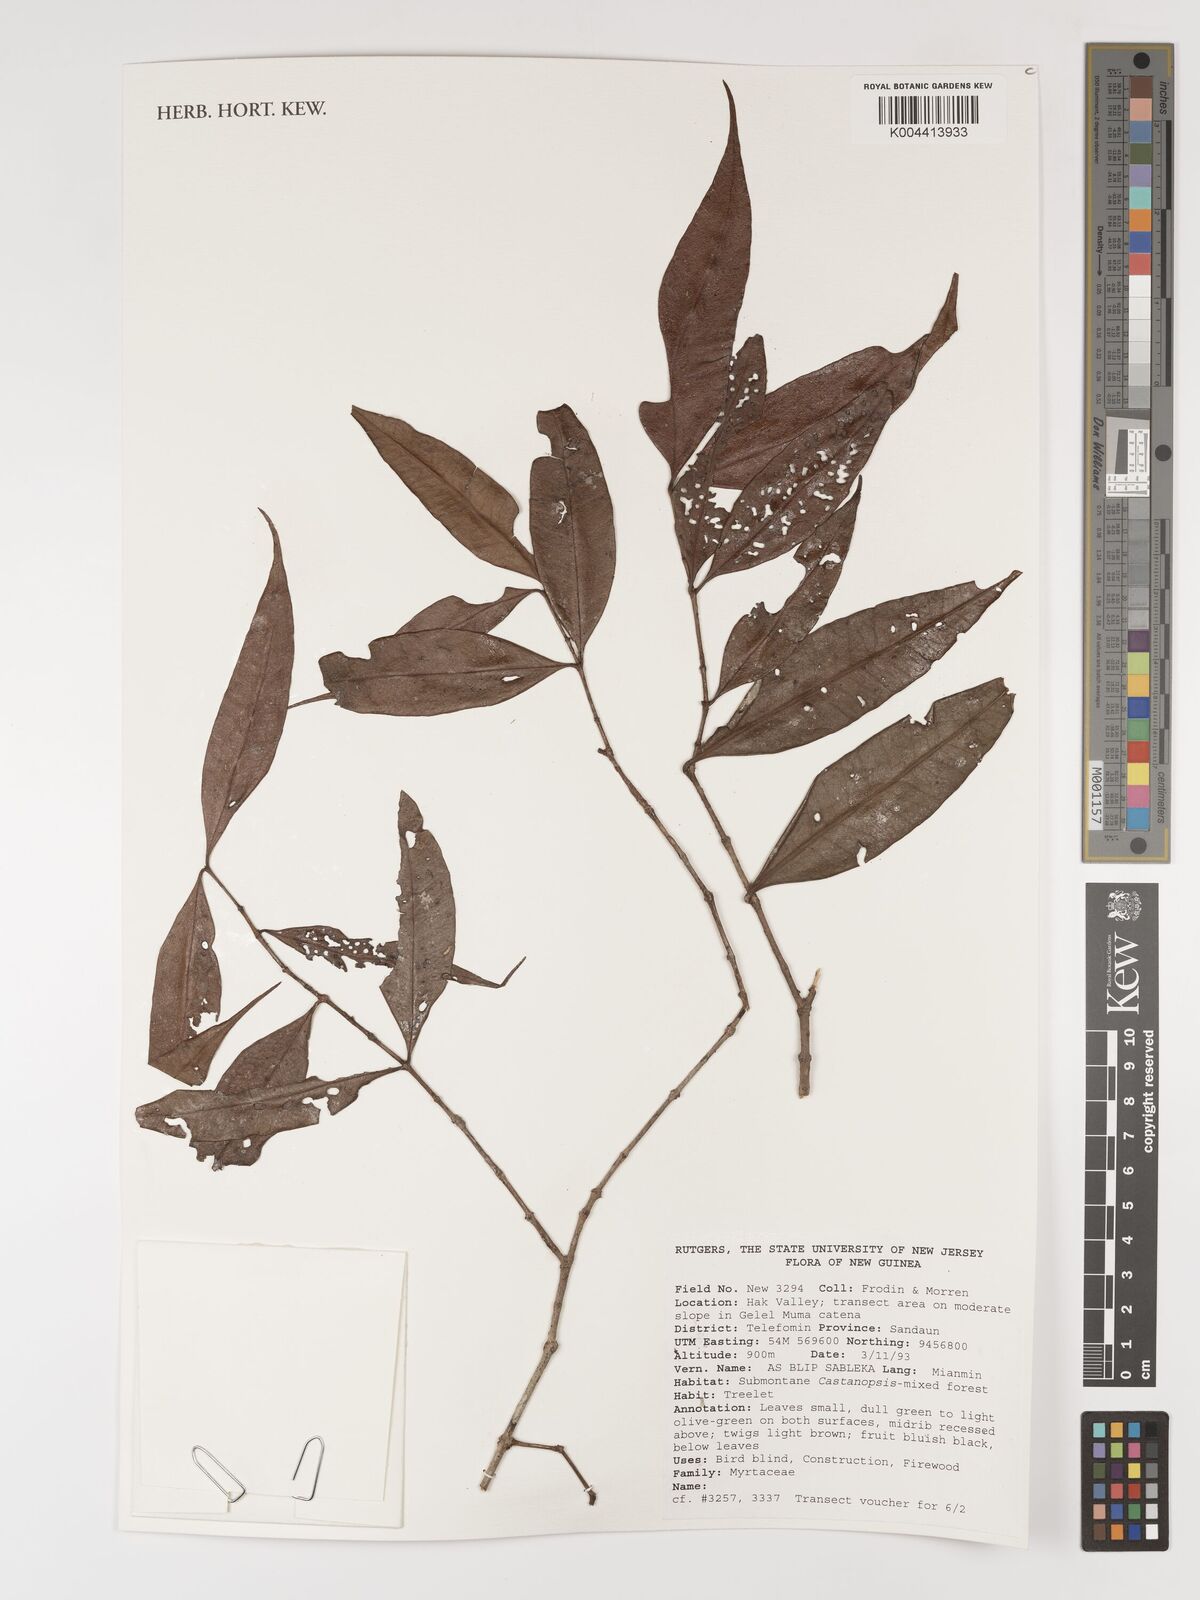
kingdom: Plantae
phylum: Tracheophyta
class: Magnoliopsida
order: Myrtales
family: Myrtaceae
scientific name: Myrtaceae
